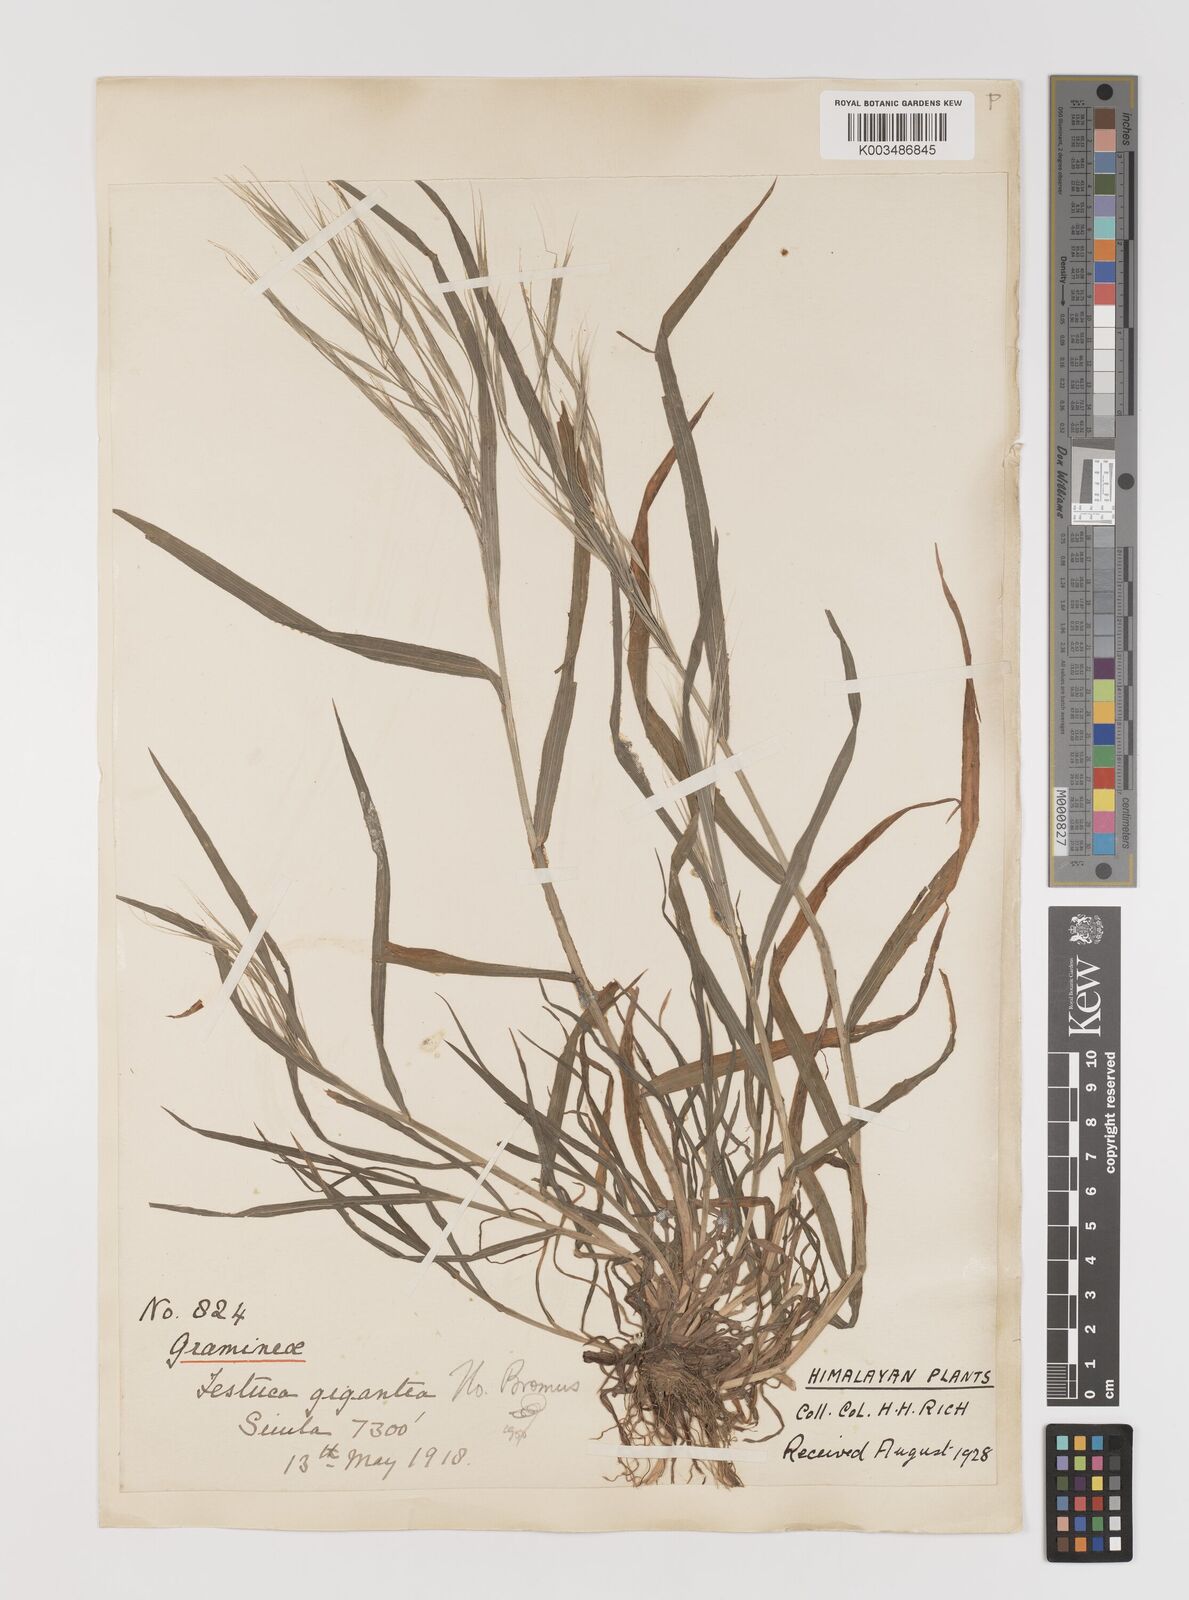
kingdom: Plantae
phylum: Tracheophyta
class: Liliopsida
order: Poales
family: Poaceae
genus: Bromus
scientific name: Bromus
